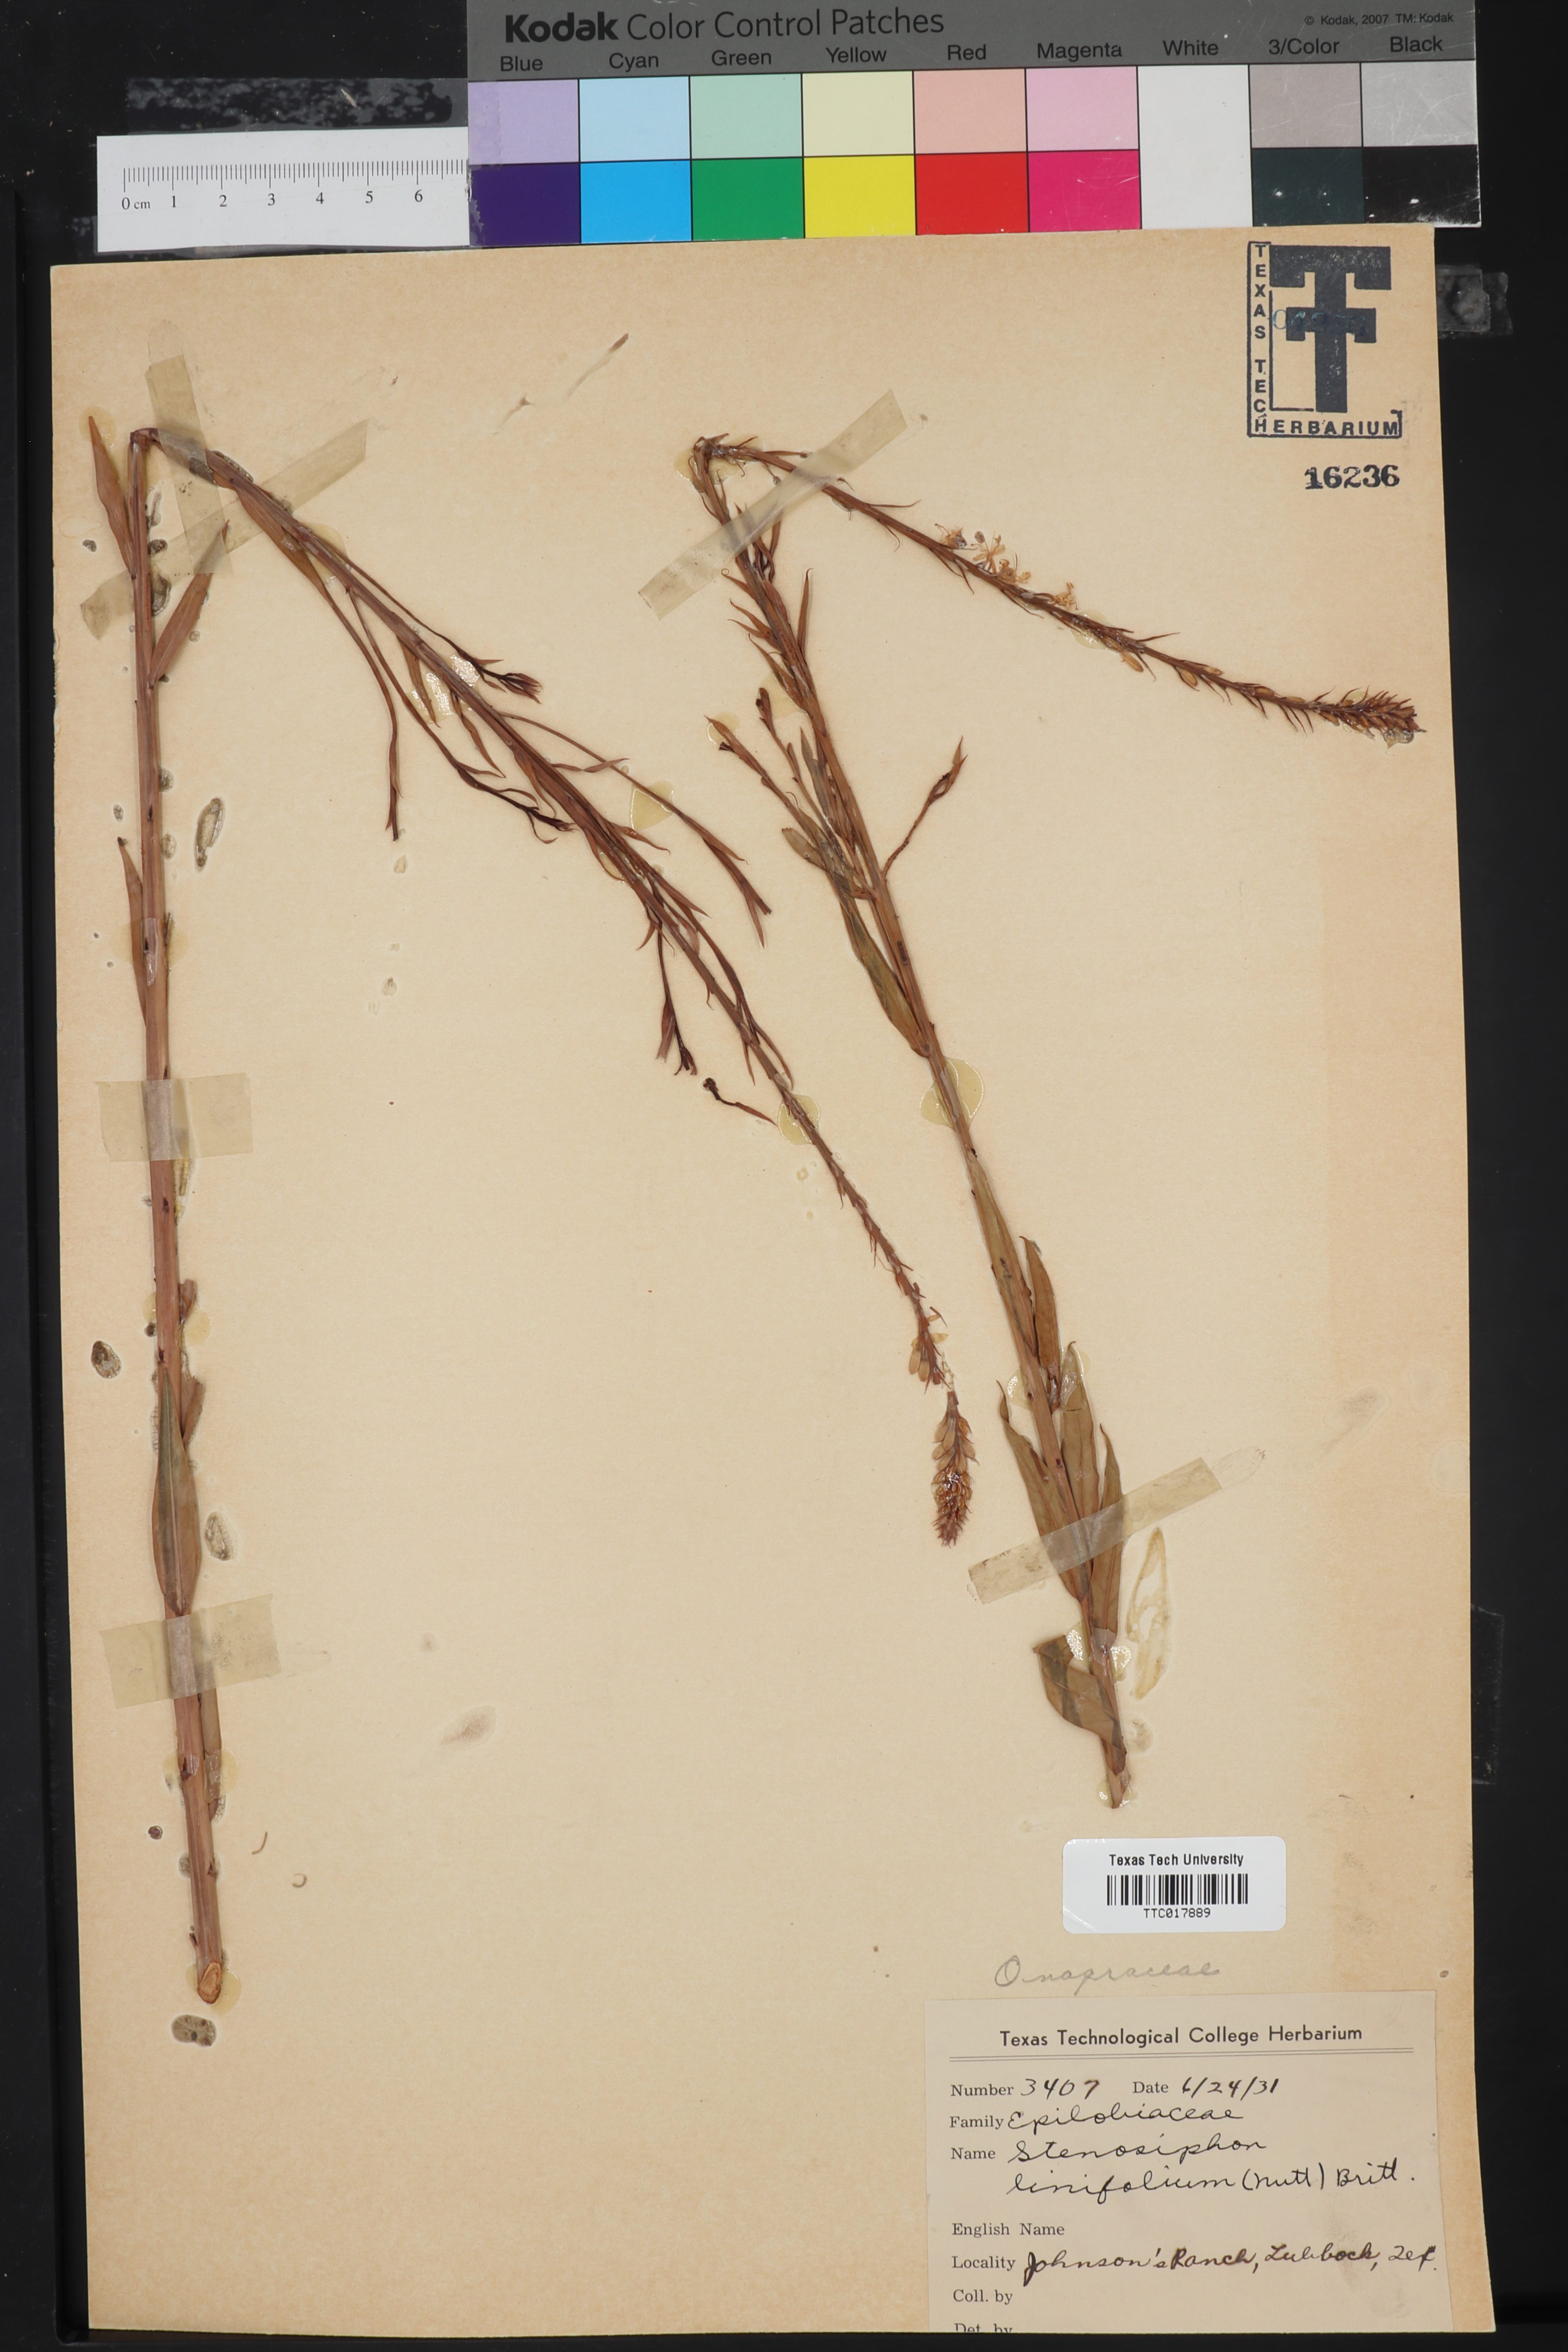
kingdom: Plantae
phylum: Tracheophyta
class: Magnoliopsida
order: Myrtales
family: Onagraceae
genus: Oenothera
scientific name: Oenothera glaucifolia
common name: False gaura
